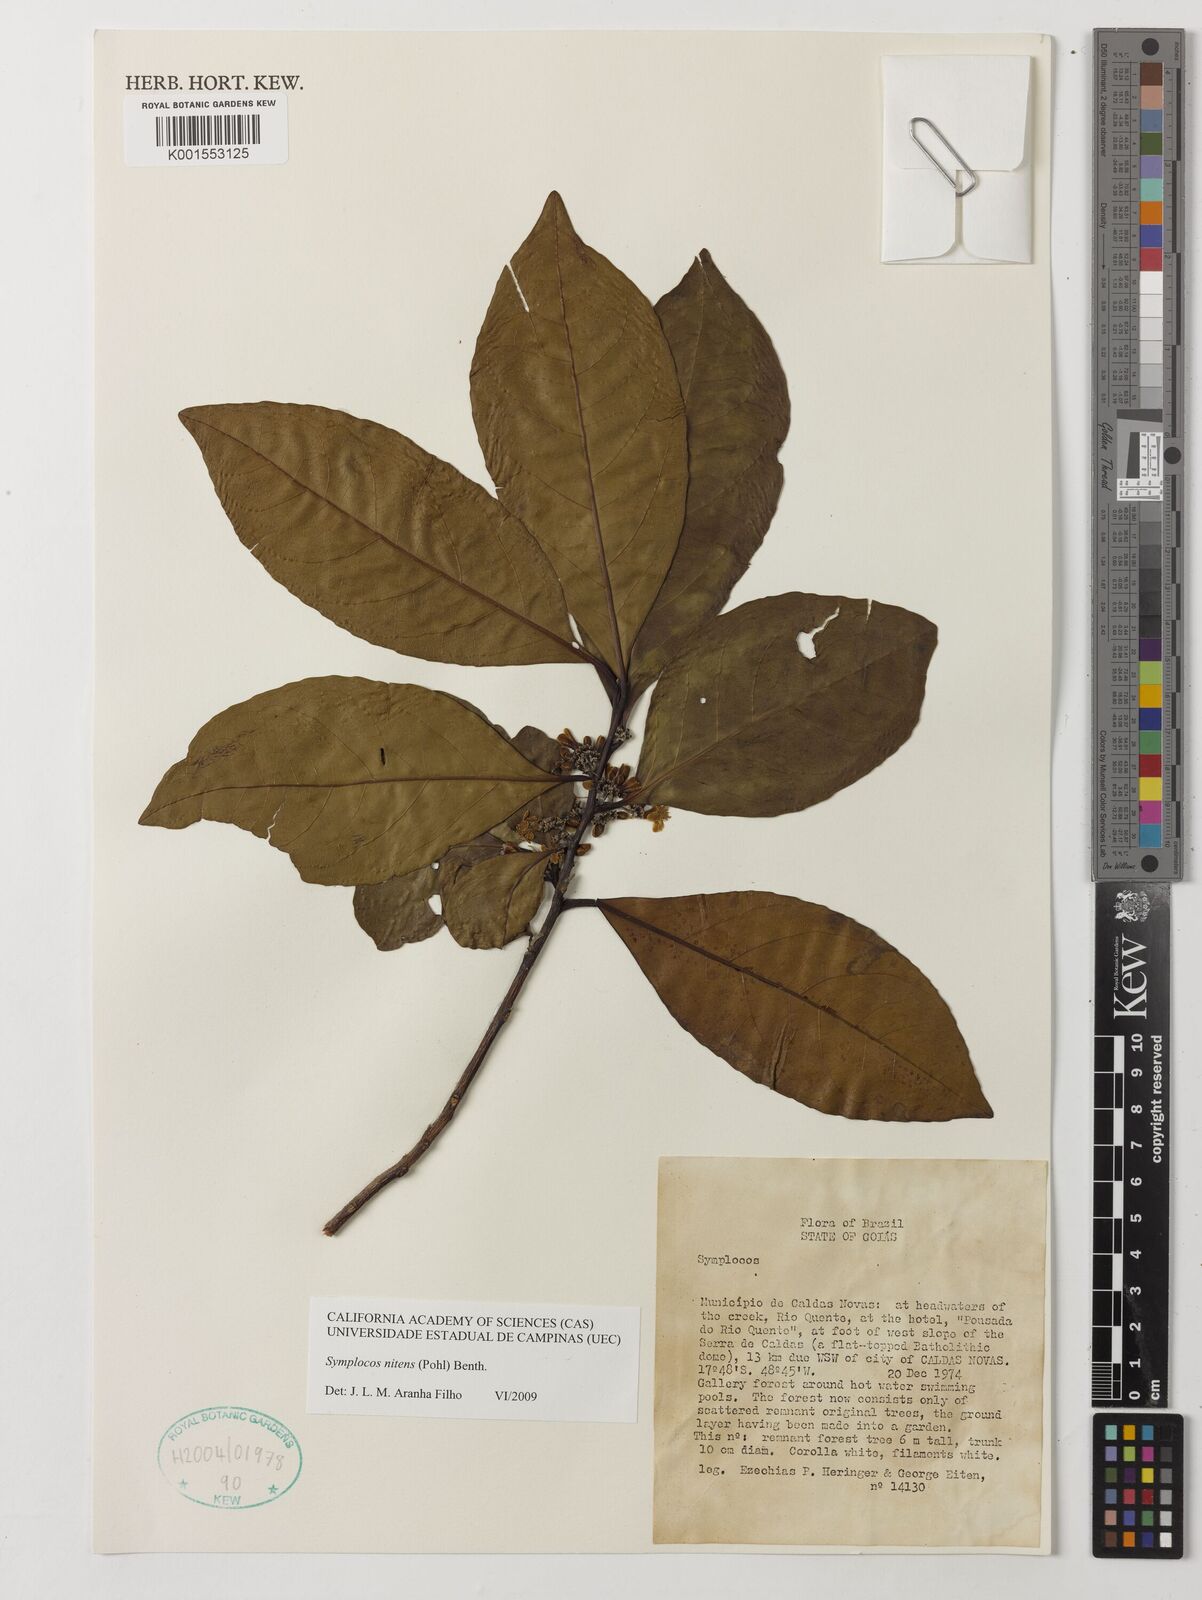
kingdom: Plantae
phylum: Tracheophyta
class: Magnoliopsida
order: Ericales
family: Symplocaceae
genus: Symplocos
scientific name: Symplocos nitens
